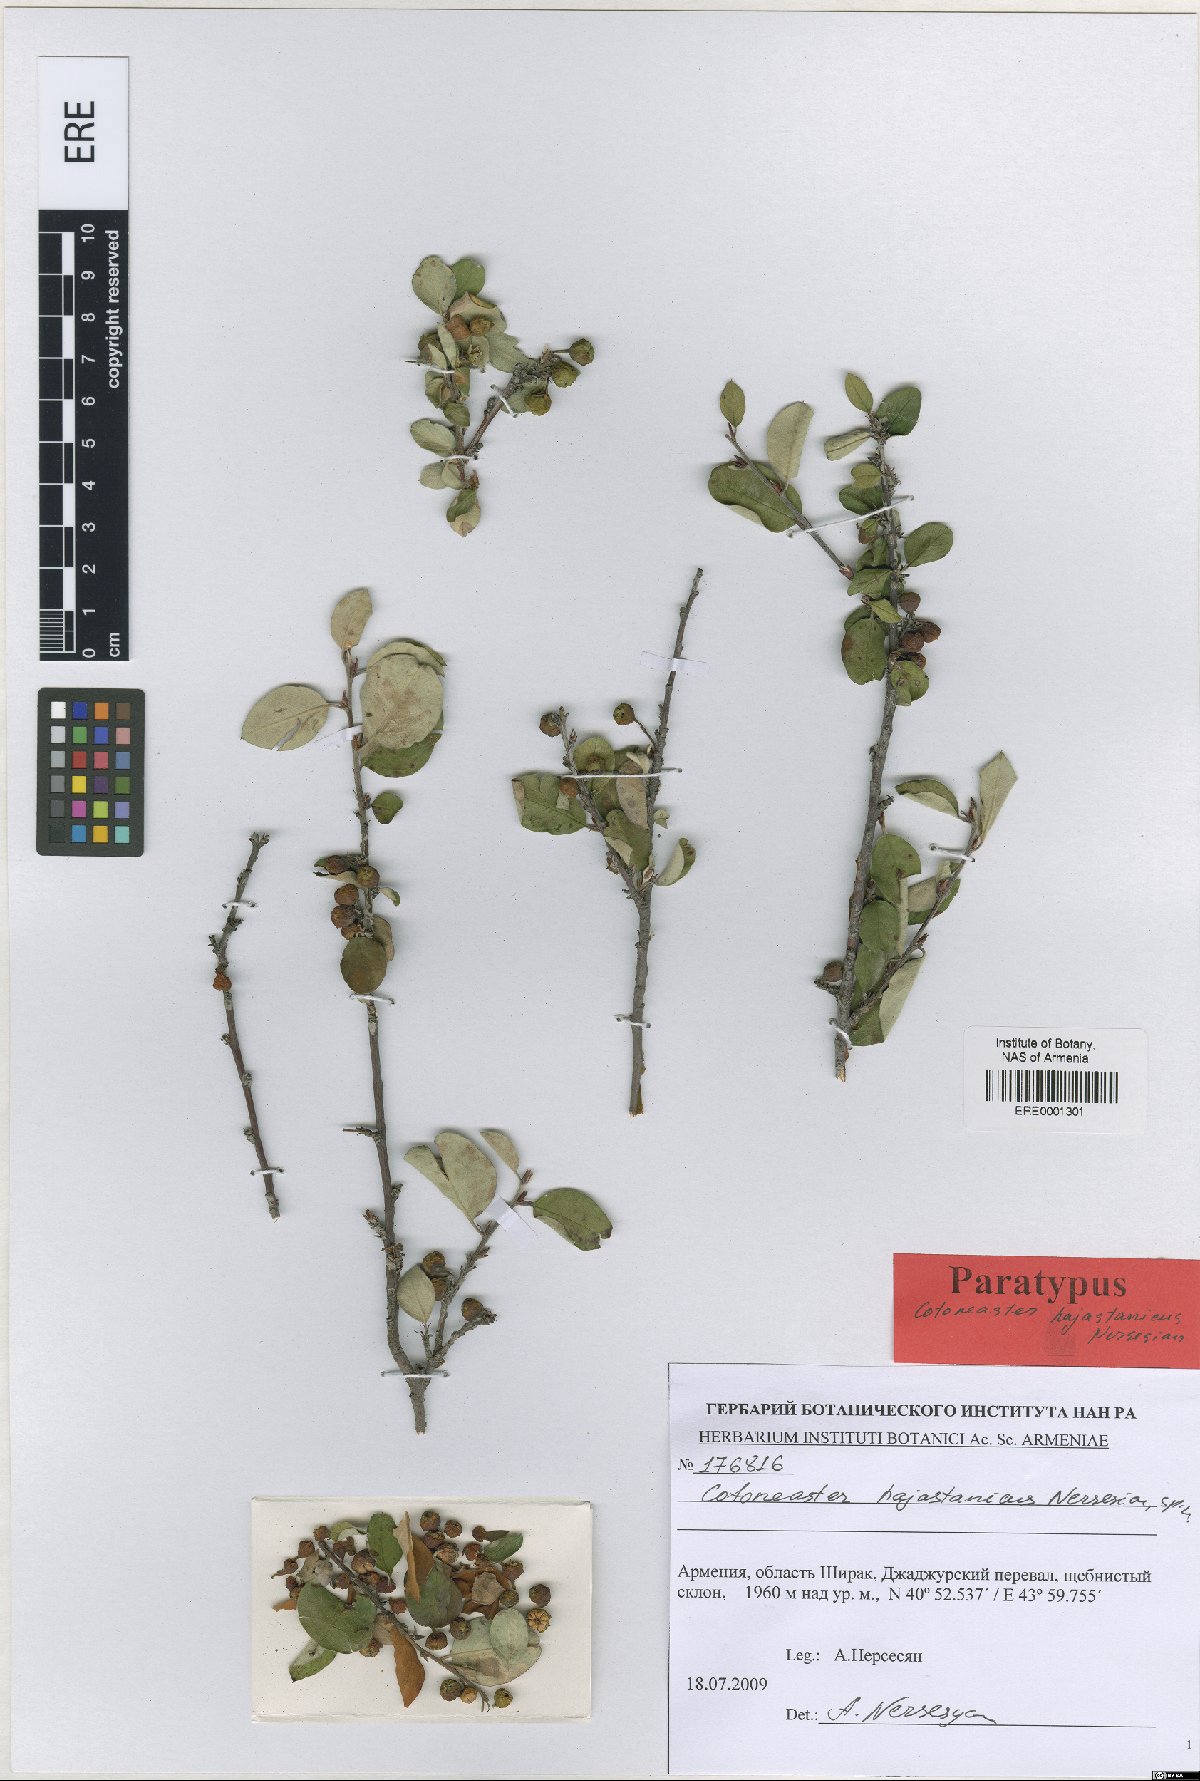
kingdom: Plantae
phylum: Tracheophyta
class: Magnoliopsida
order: Rosales
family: Rosaceae
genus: Cotoneaster
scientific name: Cotoneaster hajastanicus
